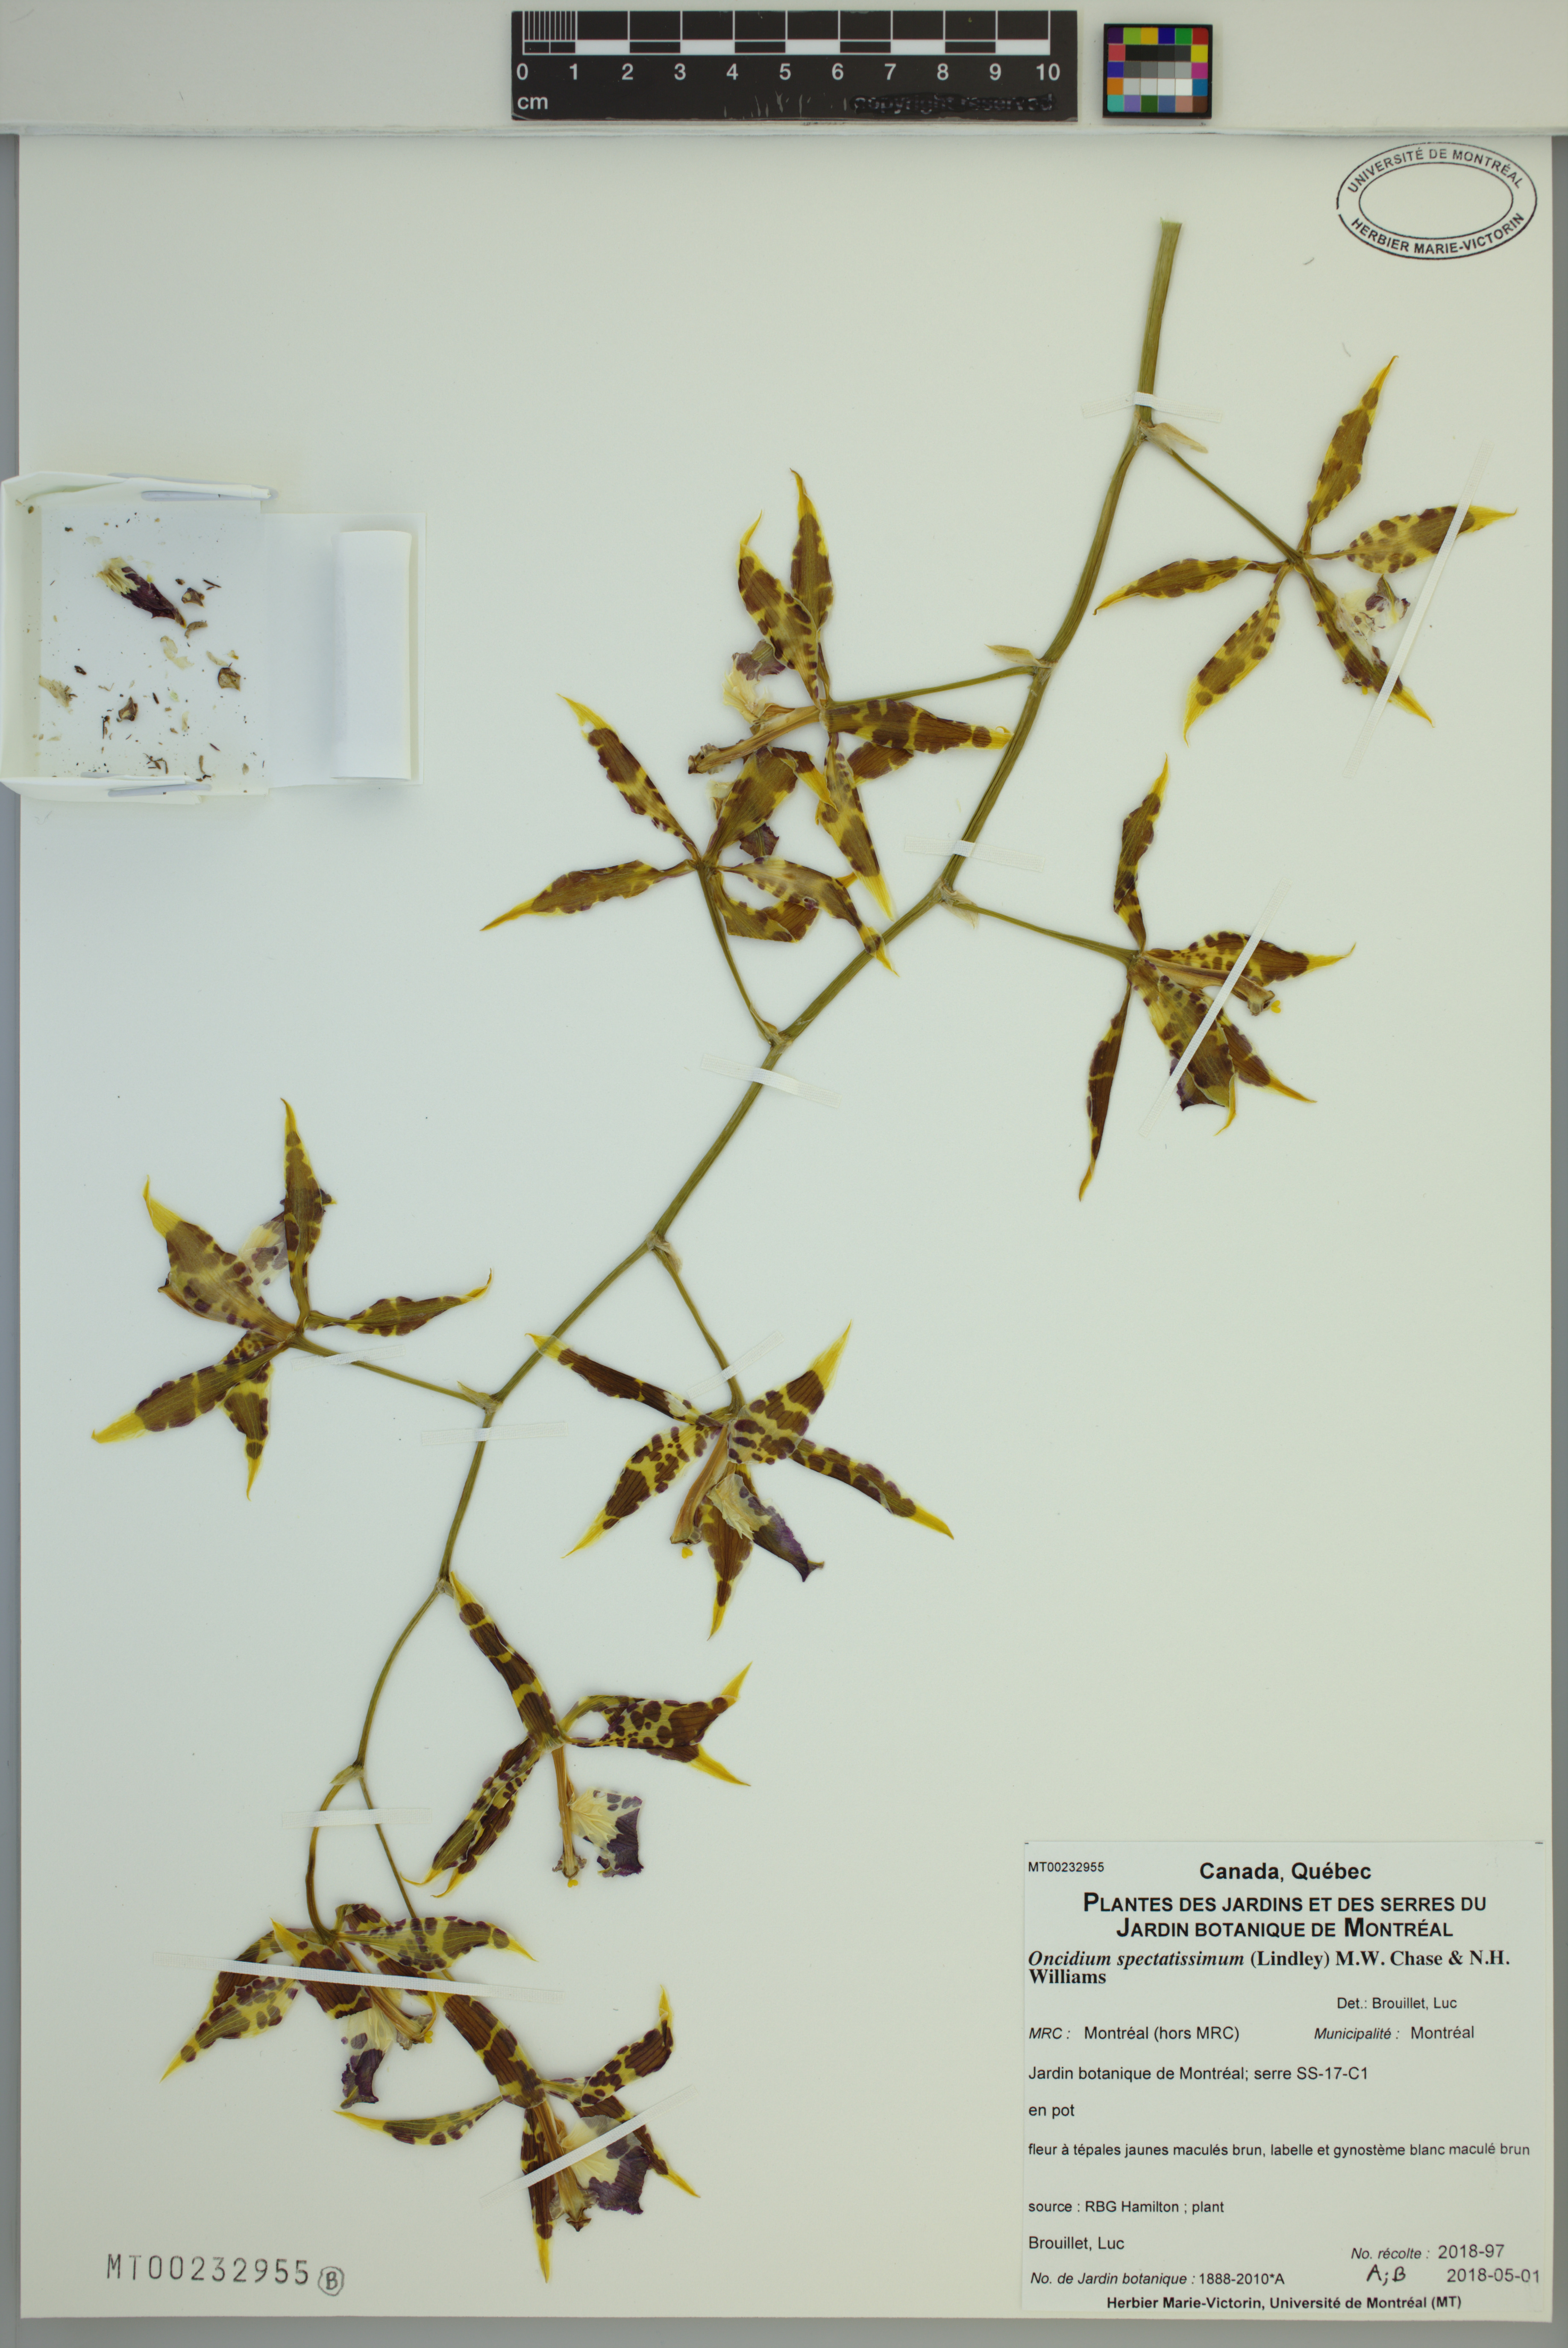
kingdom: Plantae
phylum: Tracheophyta
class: Liliopsida
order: Asparagales
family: Orchidaceae
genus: Oncidium
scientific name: Oncidium spectatissimum
